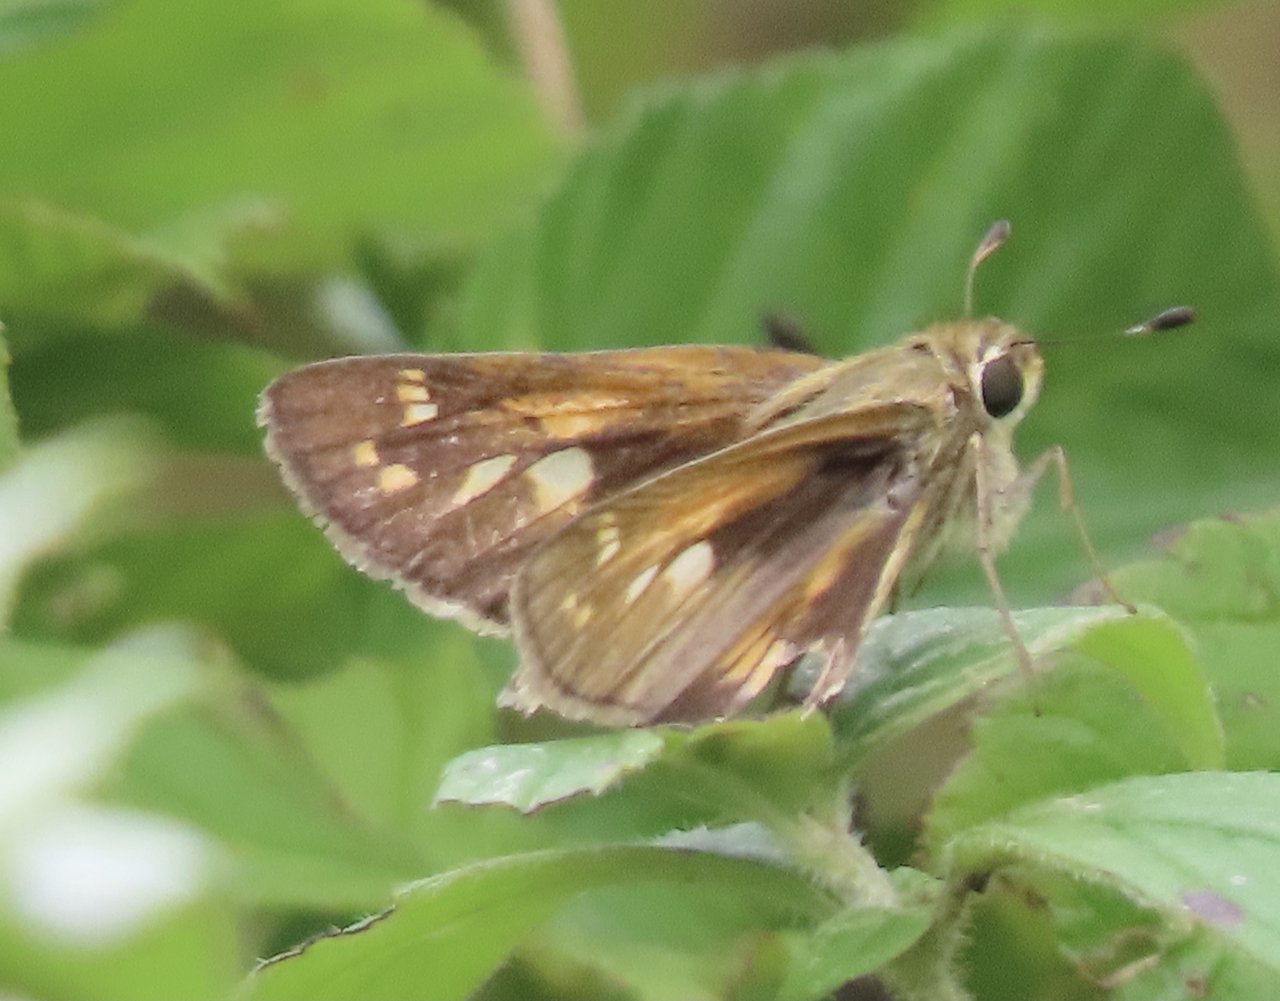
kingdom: Animalia
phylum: Arthropoda
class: Insecta
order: Lepidoptera
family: Hesperiidae
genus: Atalopedes
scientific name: Atalopedes campestris
